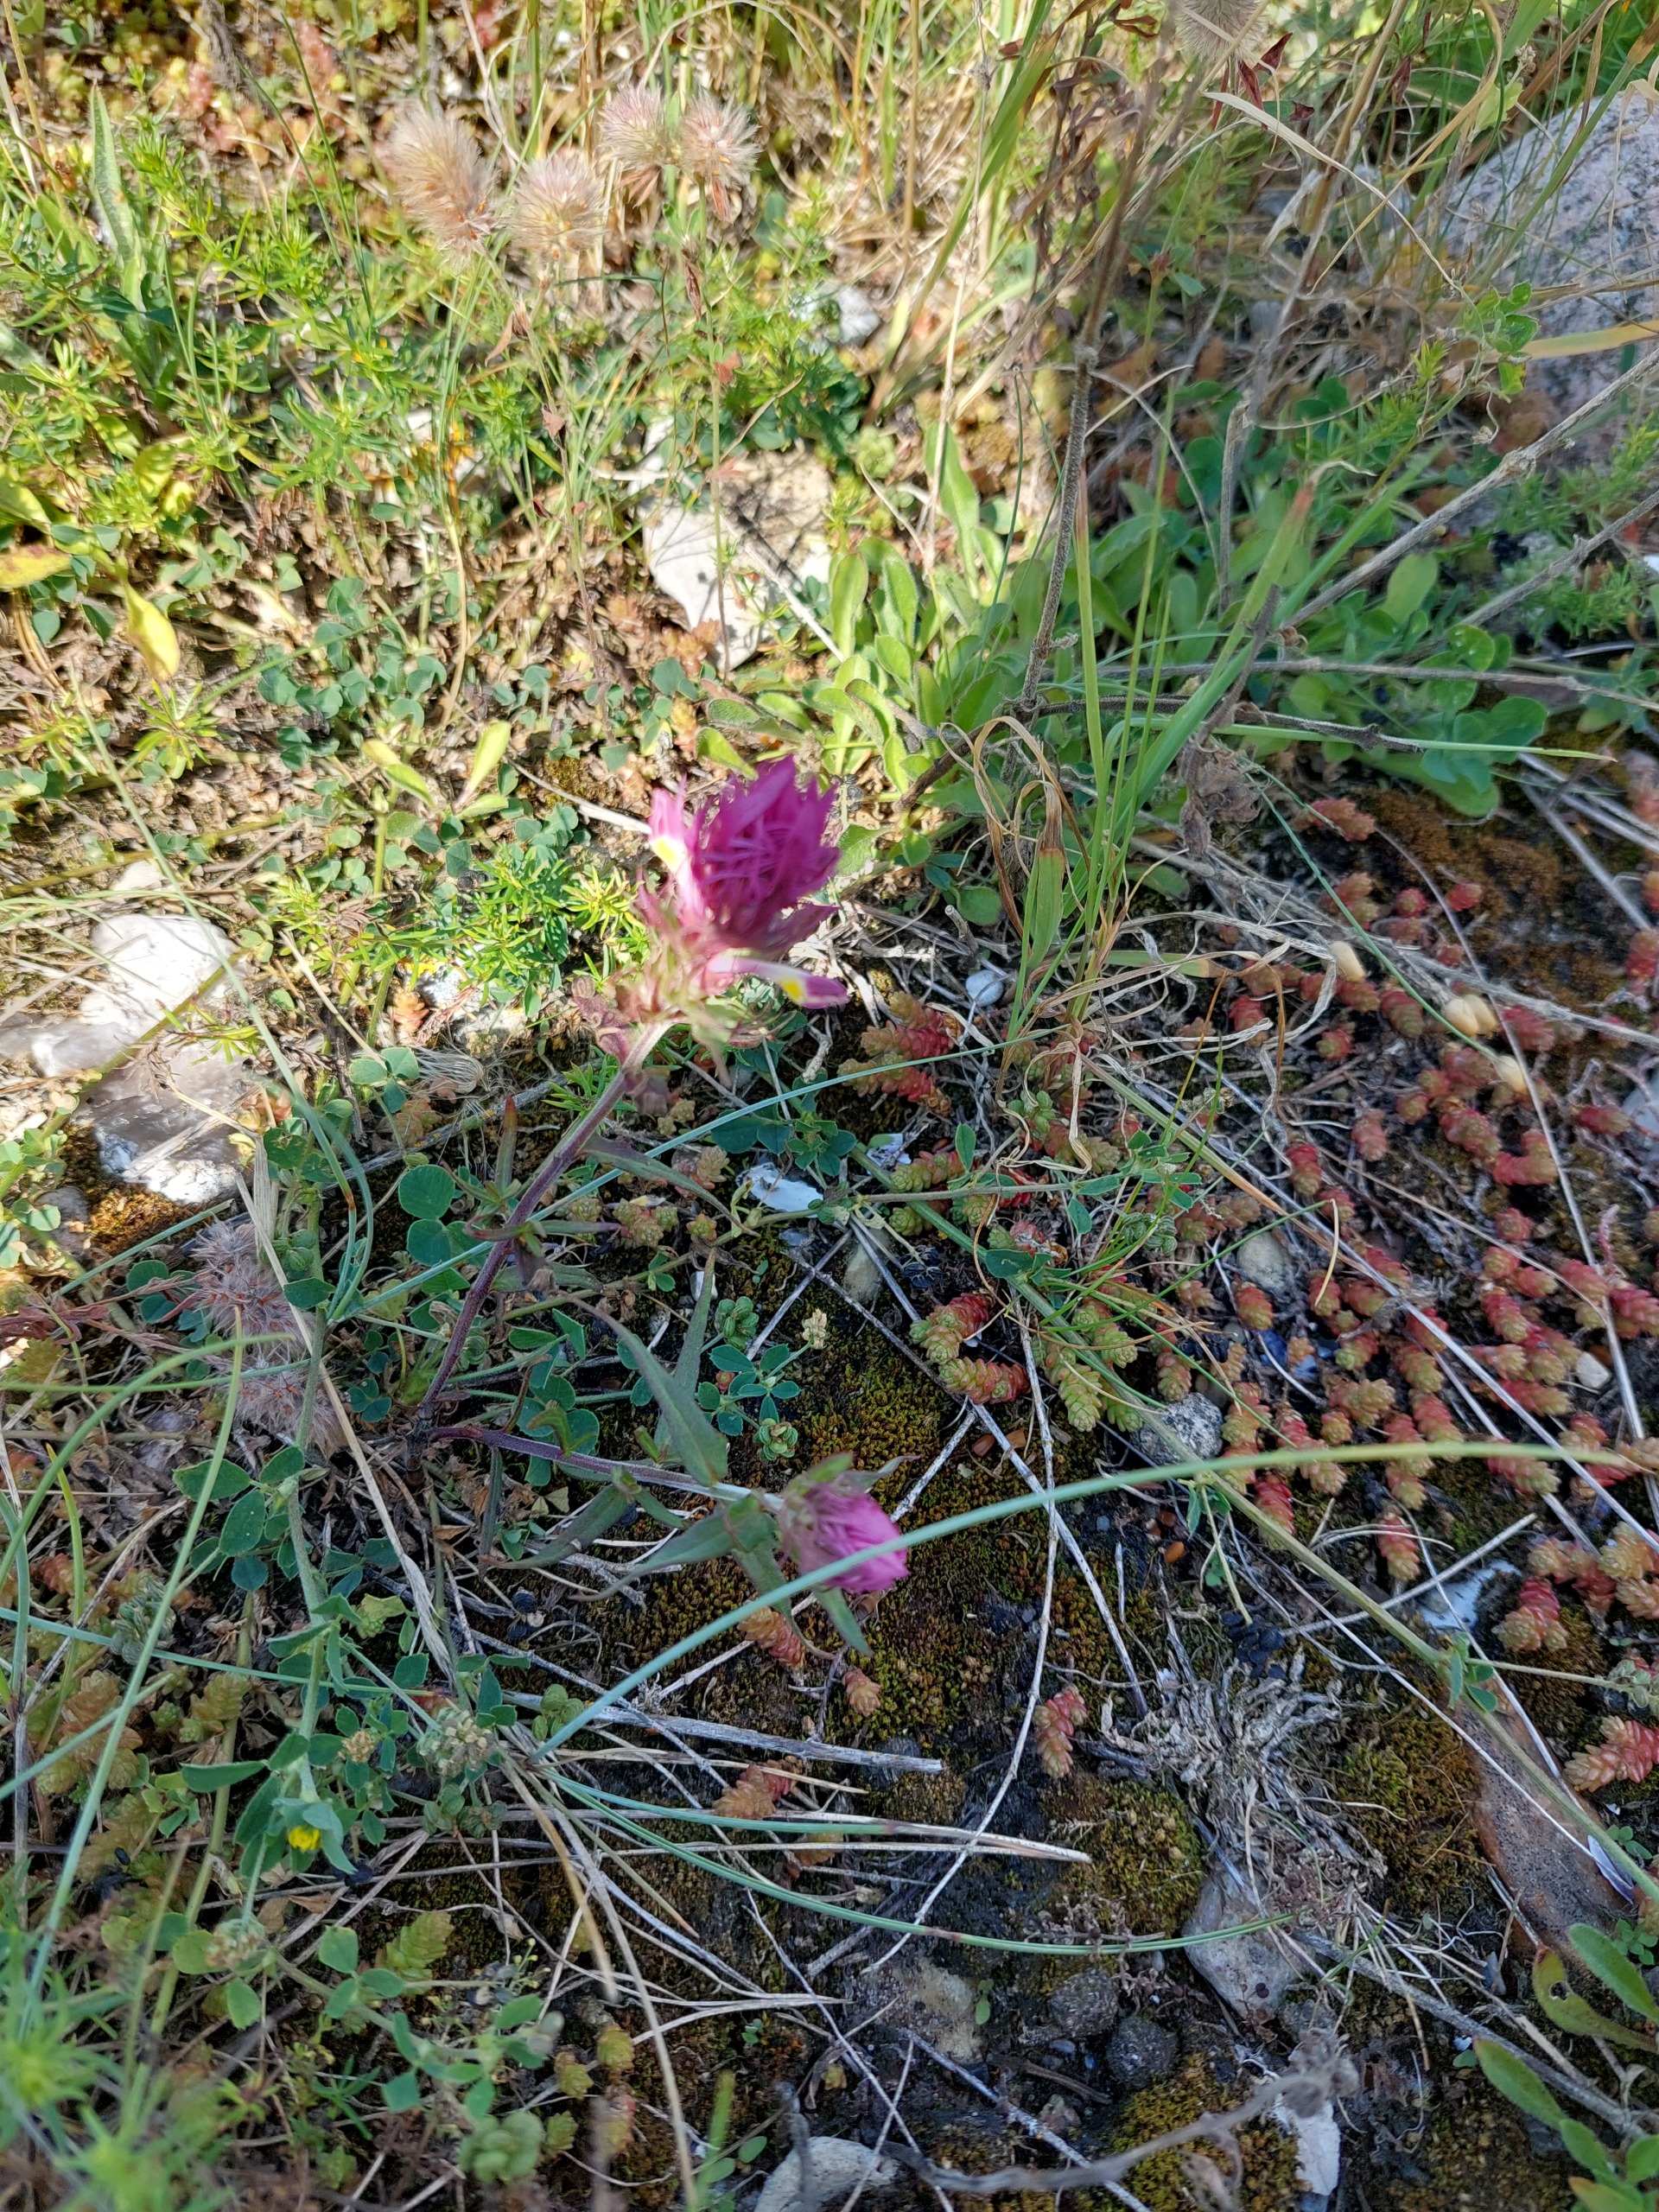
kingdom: Plantae
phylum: Tracheophyta
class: Magnoliopsida
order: Lamiales
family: Orobanchaceae
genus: Melampyrum
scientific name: Melampyrum arvense
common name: Ager-kohvede
